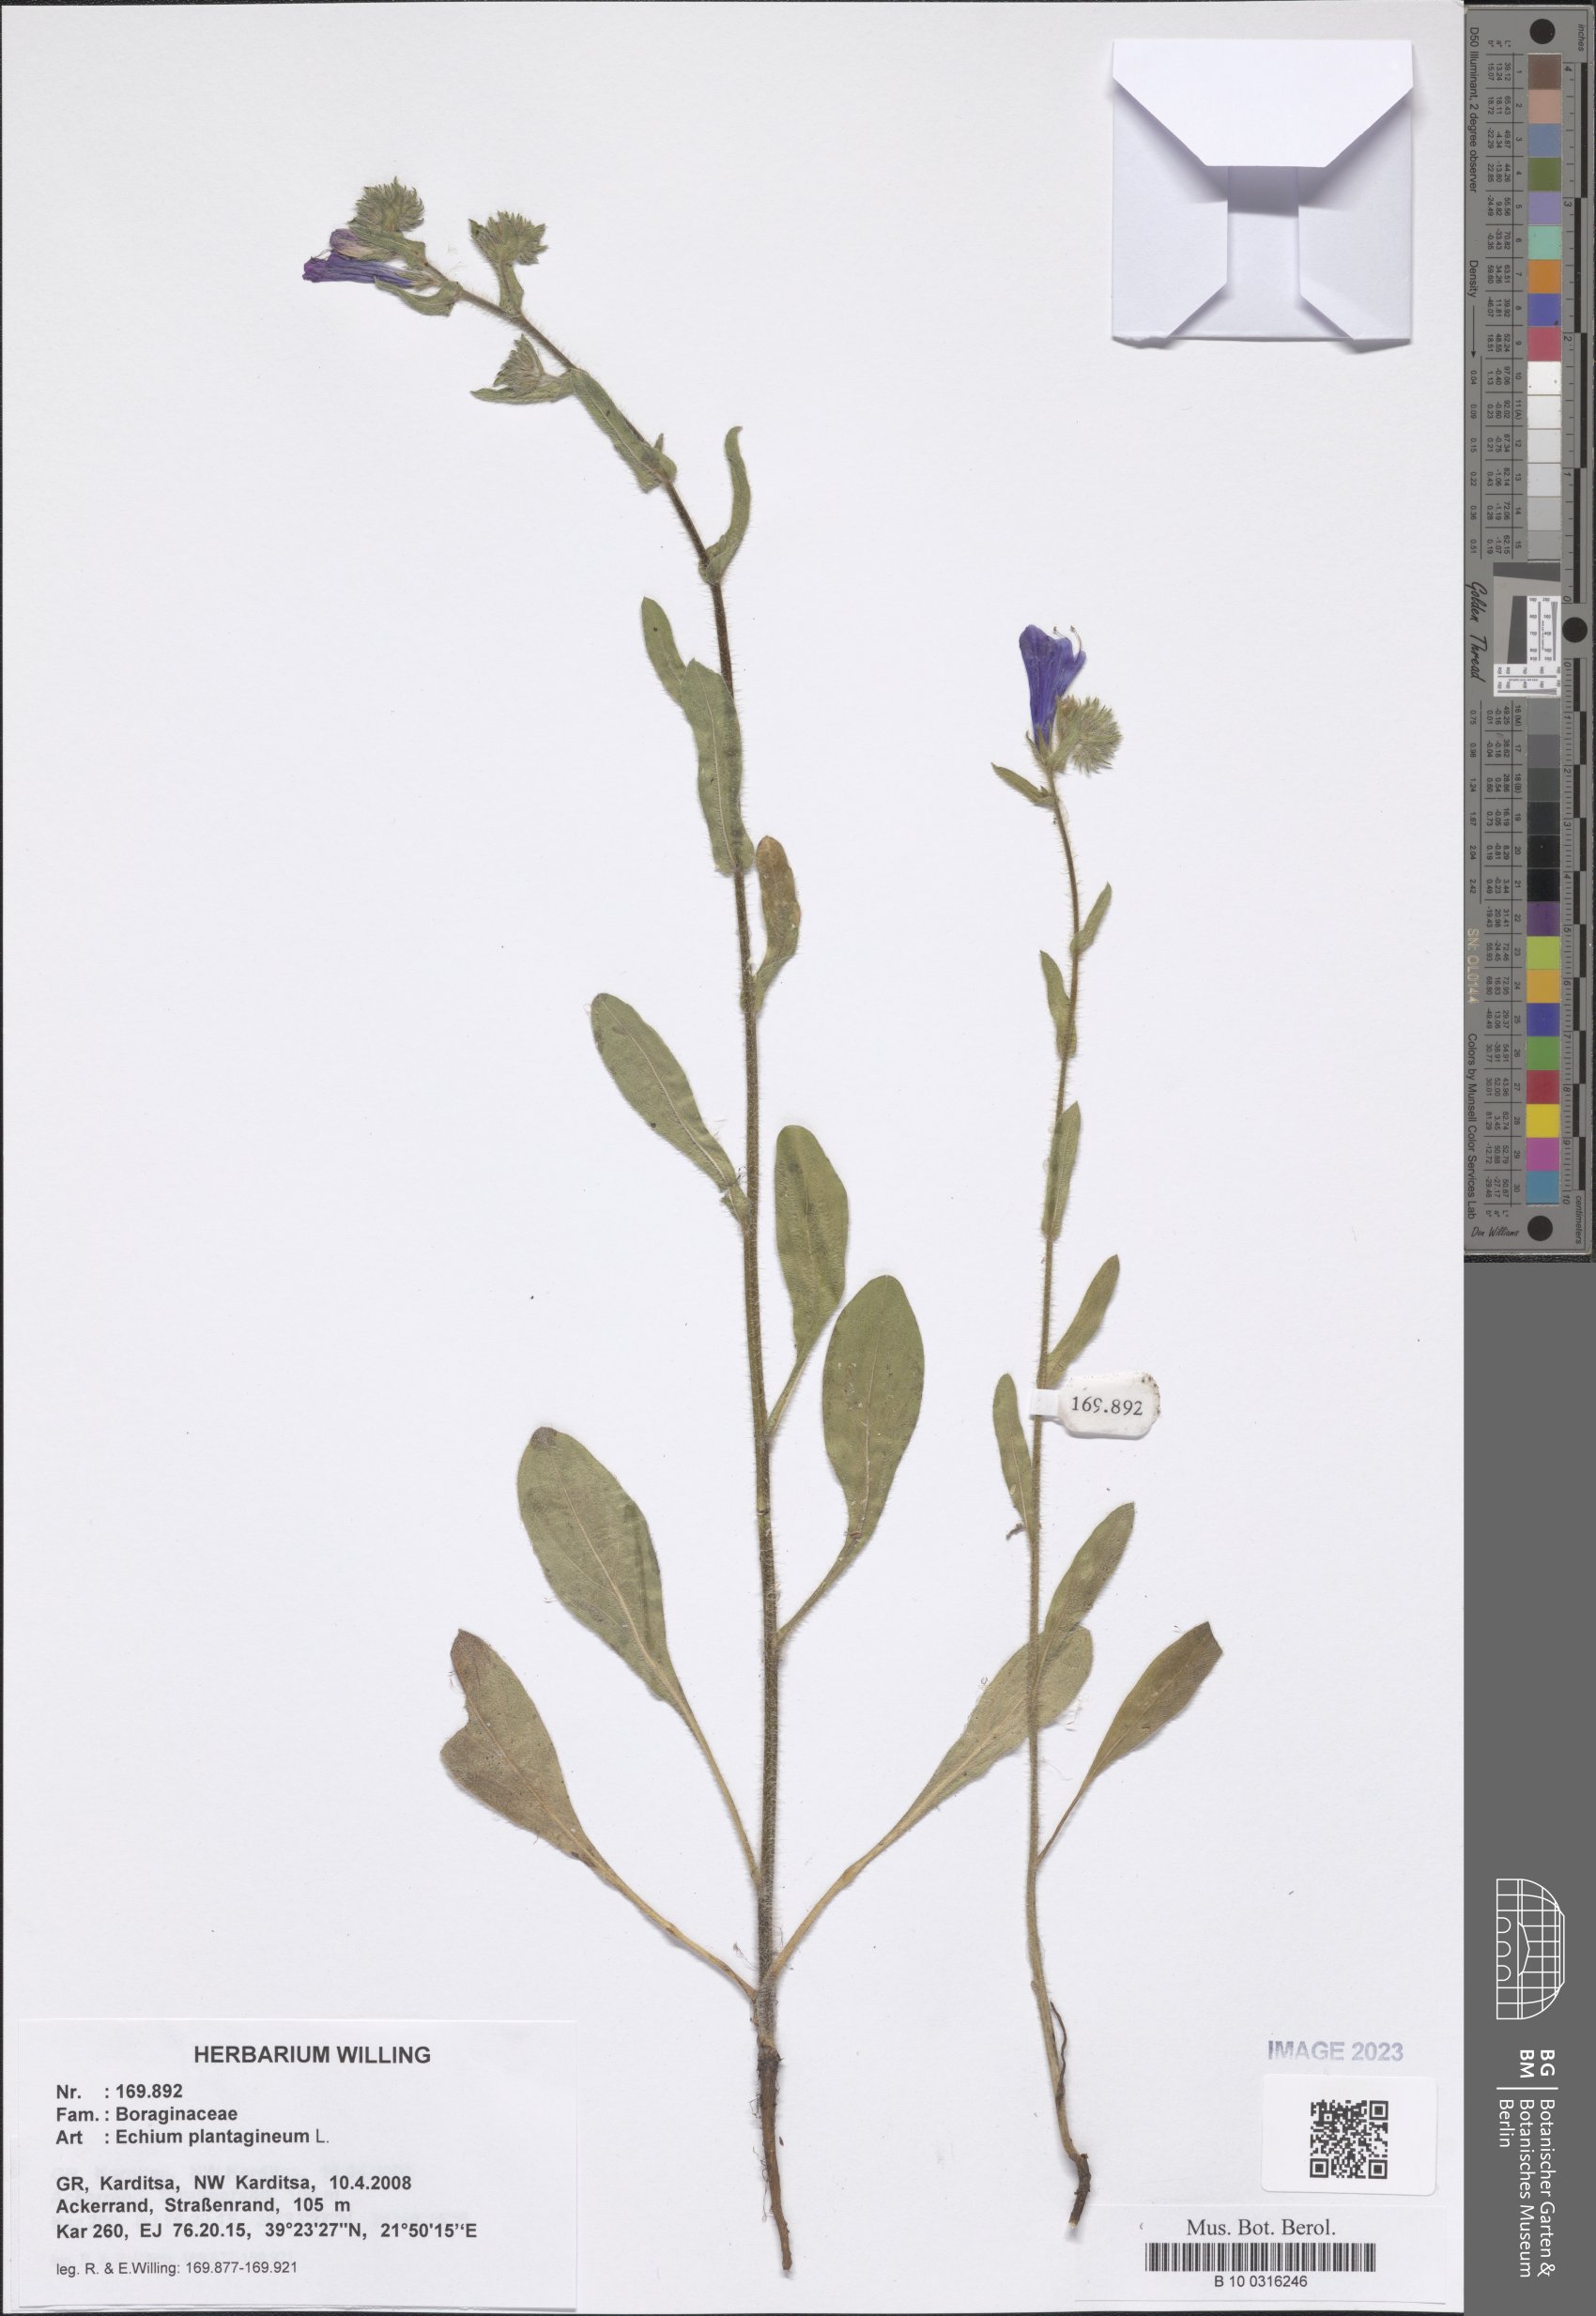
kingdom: Plantae
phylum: Tracheophyta
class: Magnoliopsida
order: Boraginales
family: Boraginaceae
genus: Echium
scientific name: Echium plantagineum
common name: Purple viper's-bugloss
